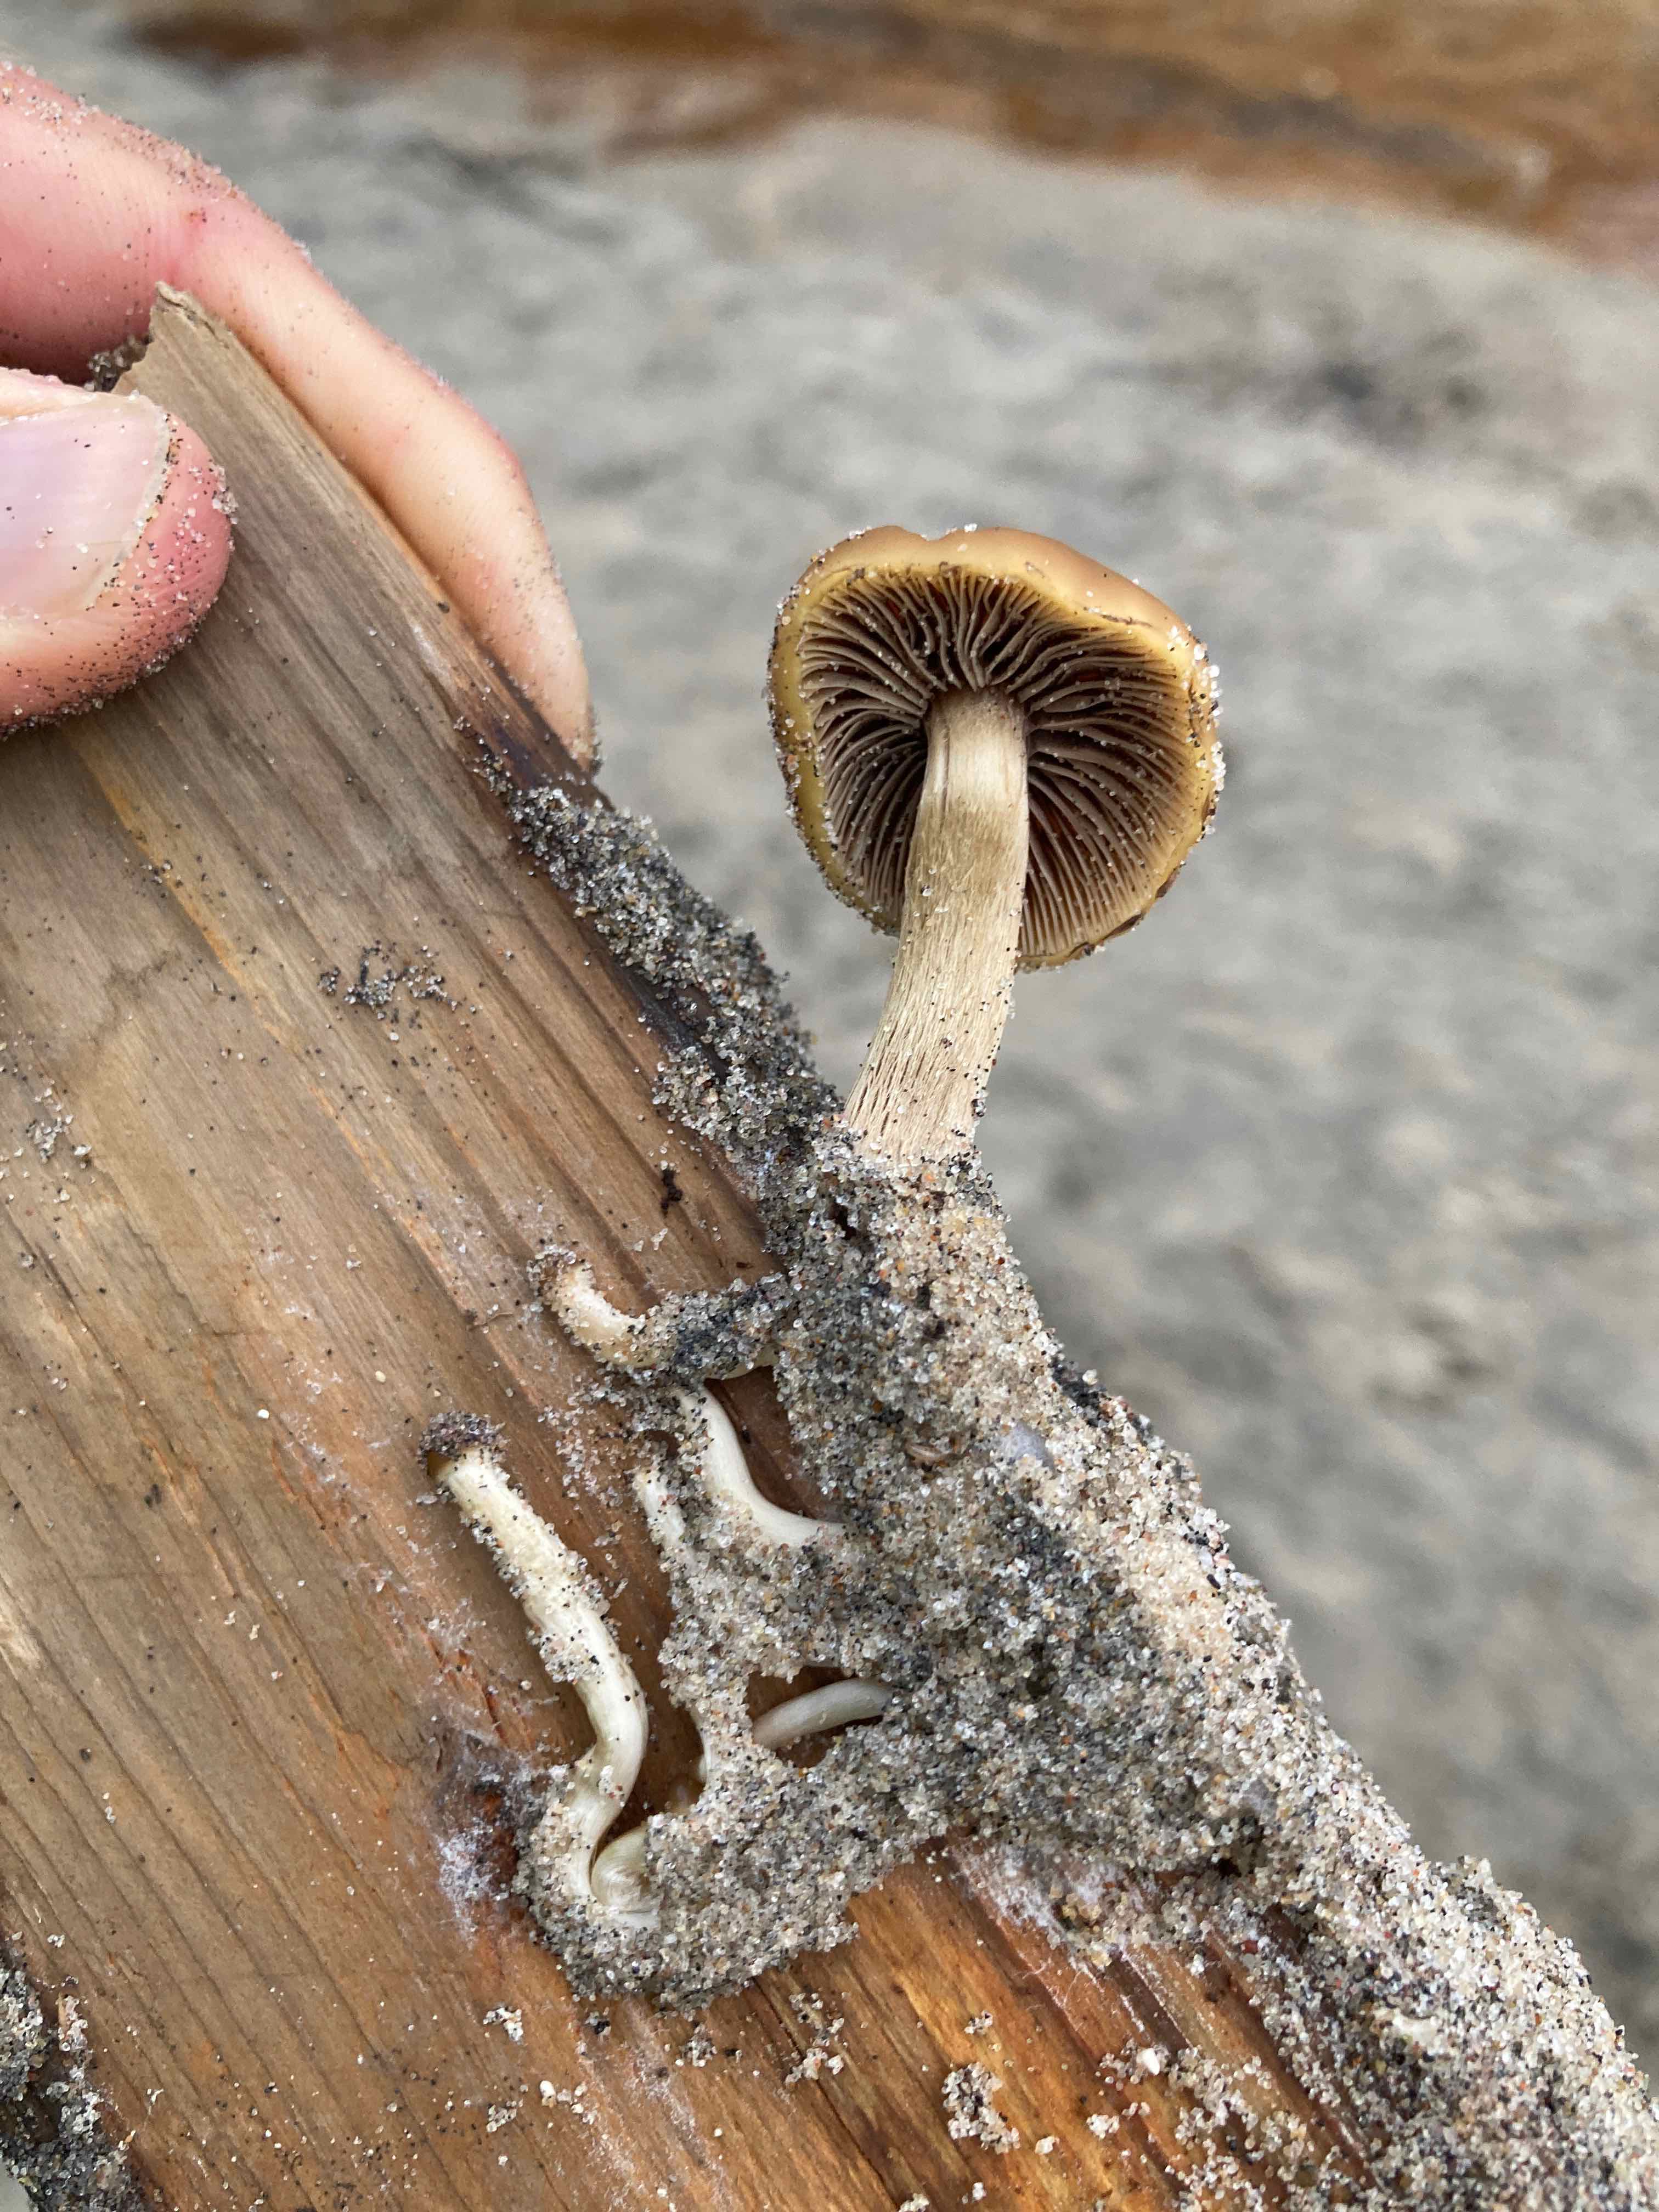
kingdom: Fungi
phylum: Basidiomycota
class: Agaricomycetes
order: Agaricales
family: Psathyrellaceae
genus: Psathyrella
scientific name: Psathyrella
